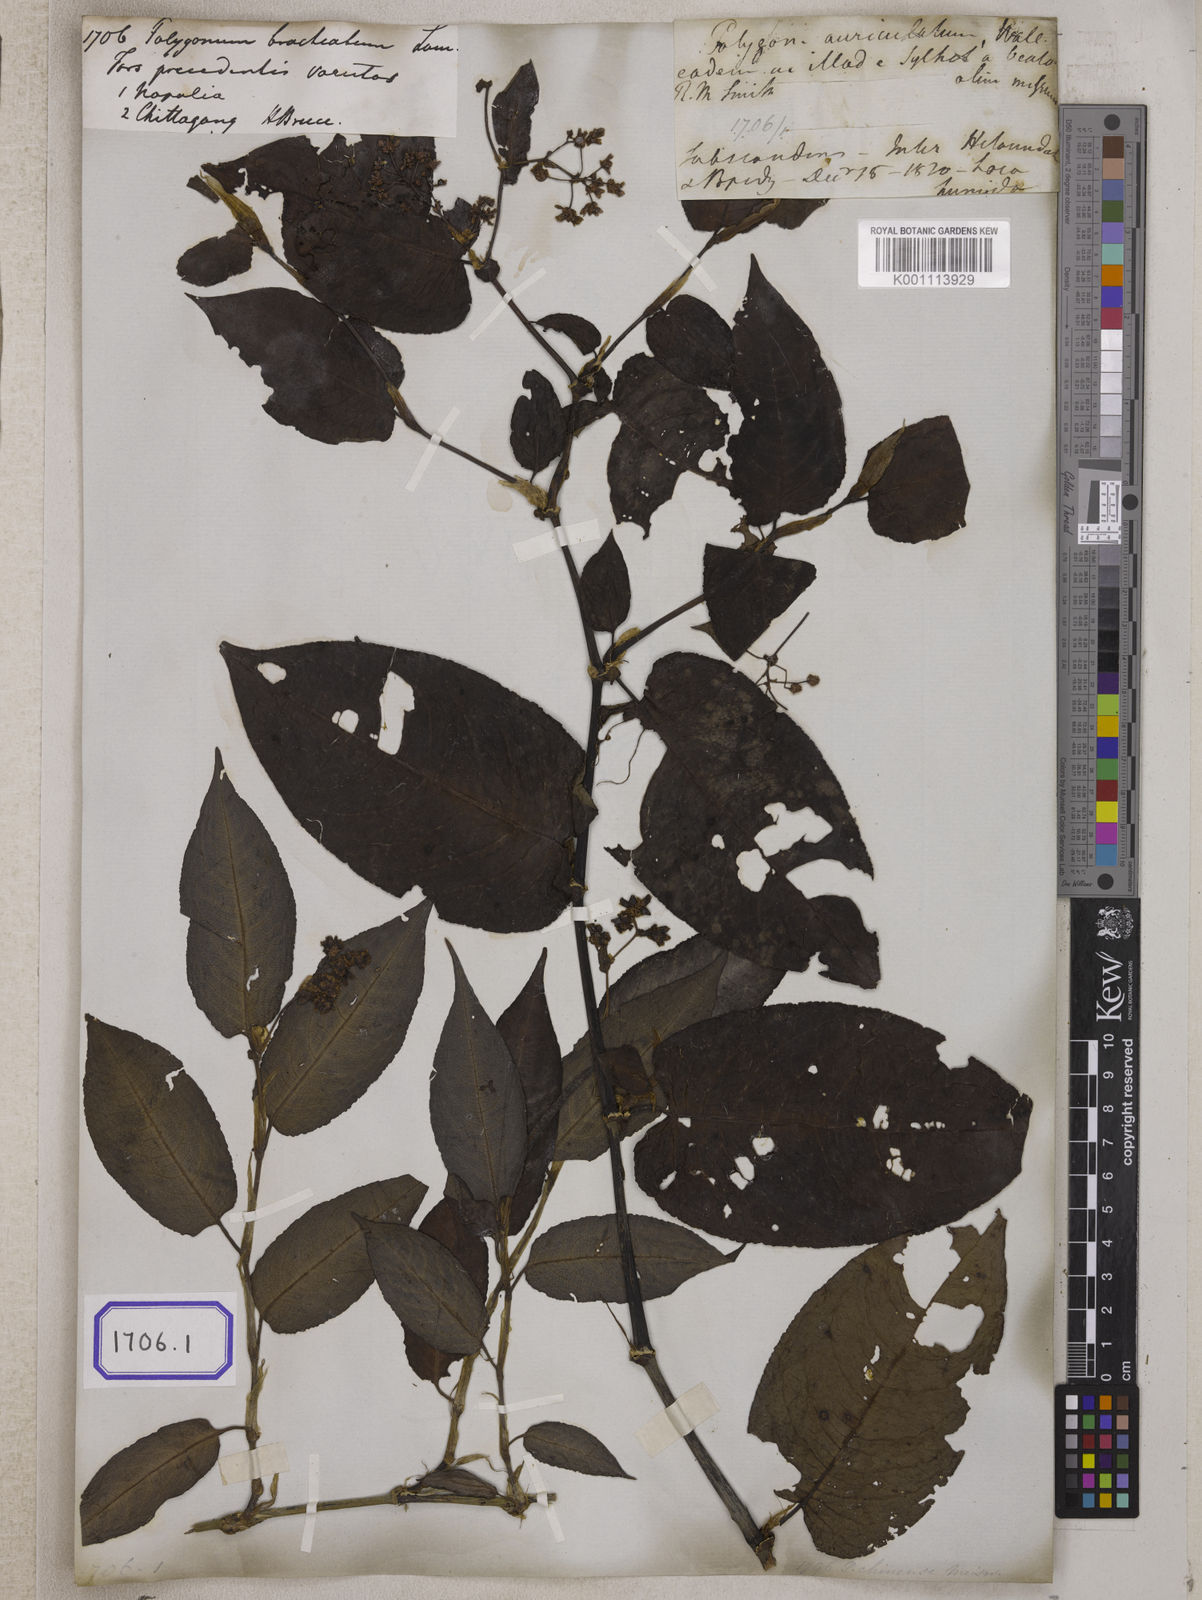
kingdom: Plantae
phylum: Tracheophyta
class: Magnoliopsida
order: Caryophyllales
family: Polygonaceae
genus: Polygonum
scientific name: Polygonum
